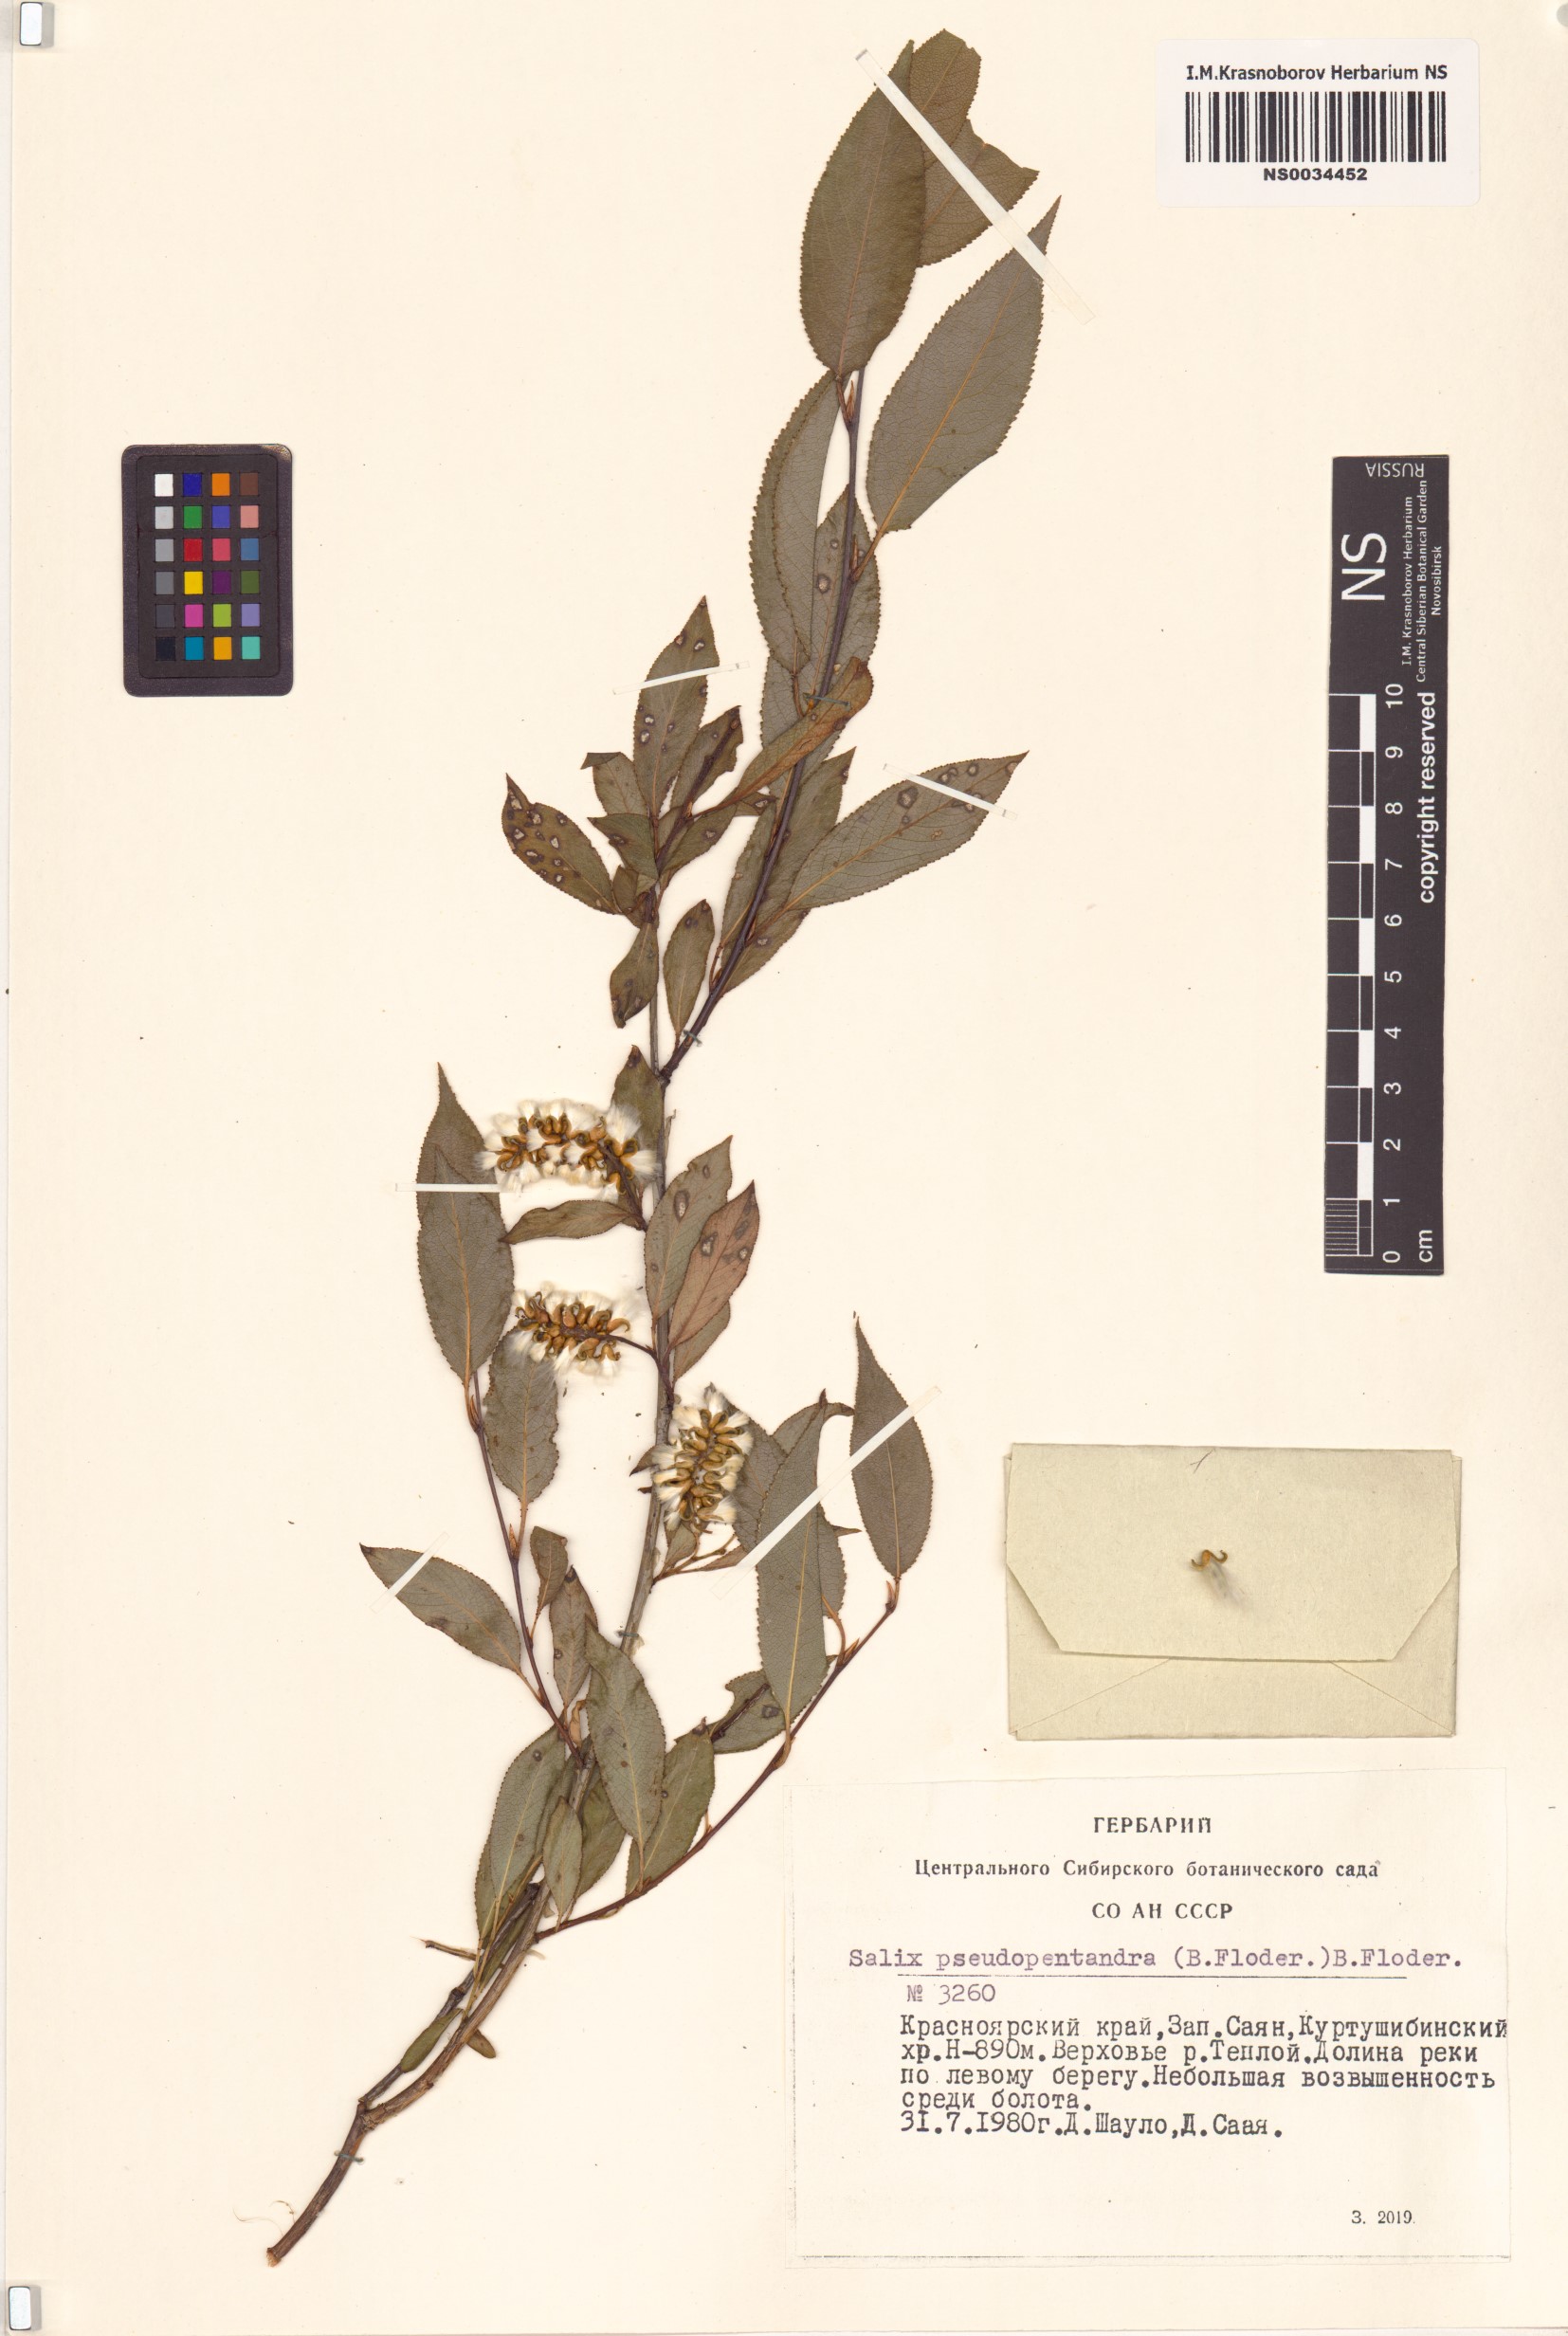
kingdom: Plantae
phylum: Tracheophyta
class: Magnoliopsida
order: Malpighiales
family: Salicaceae
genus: Salix
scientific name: Salix pseudopentandra
